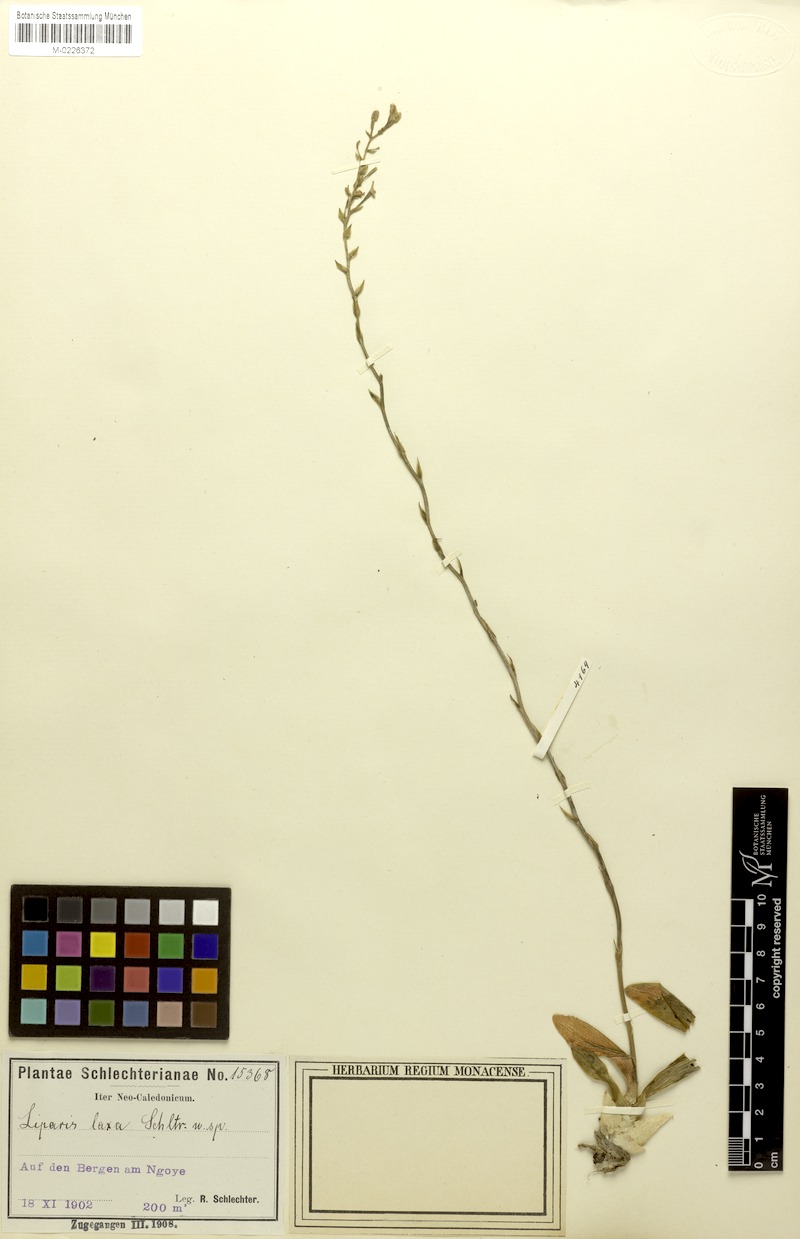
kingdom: Plantae
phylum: Tracheophyta
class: Liliopsida
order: Asparagales
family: Orchidaceae
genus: Liparis
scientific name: Liparis laxa
